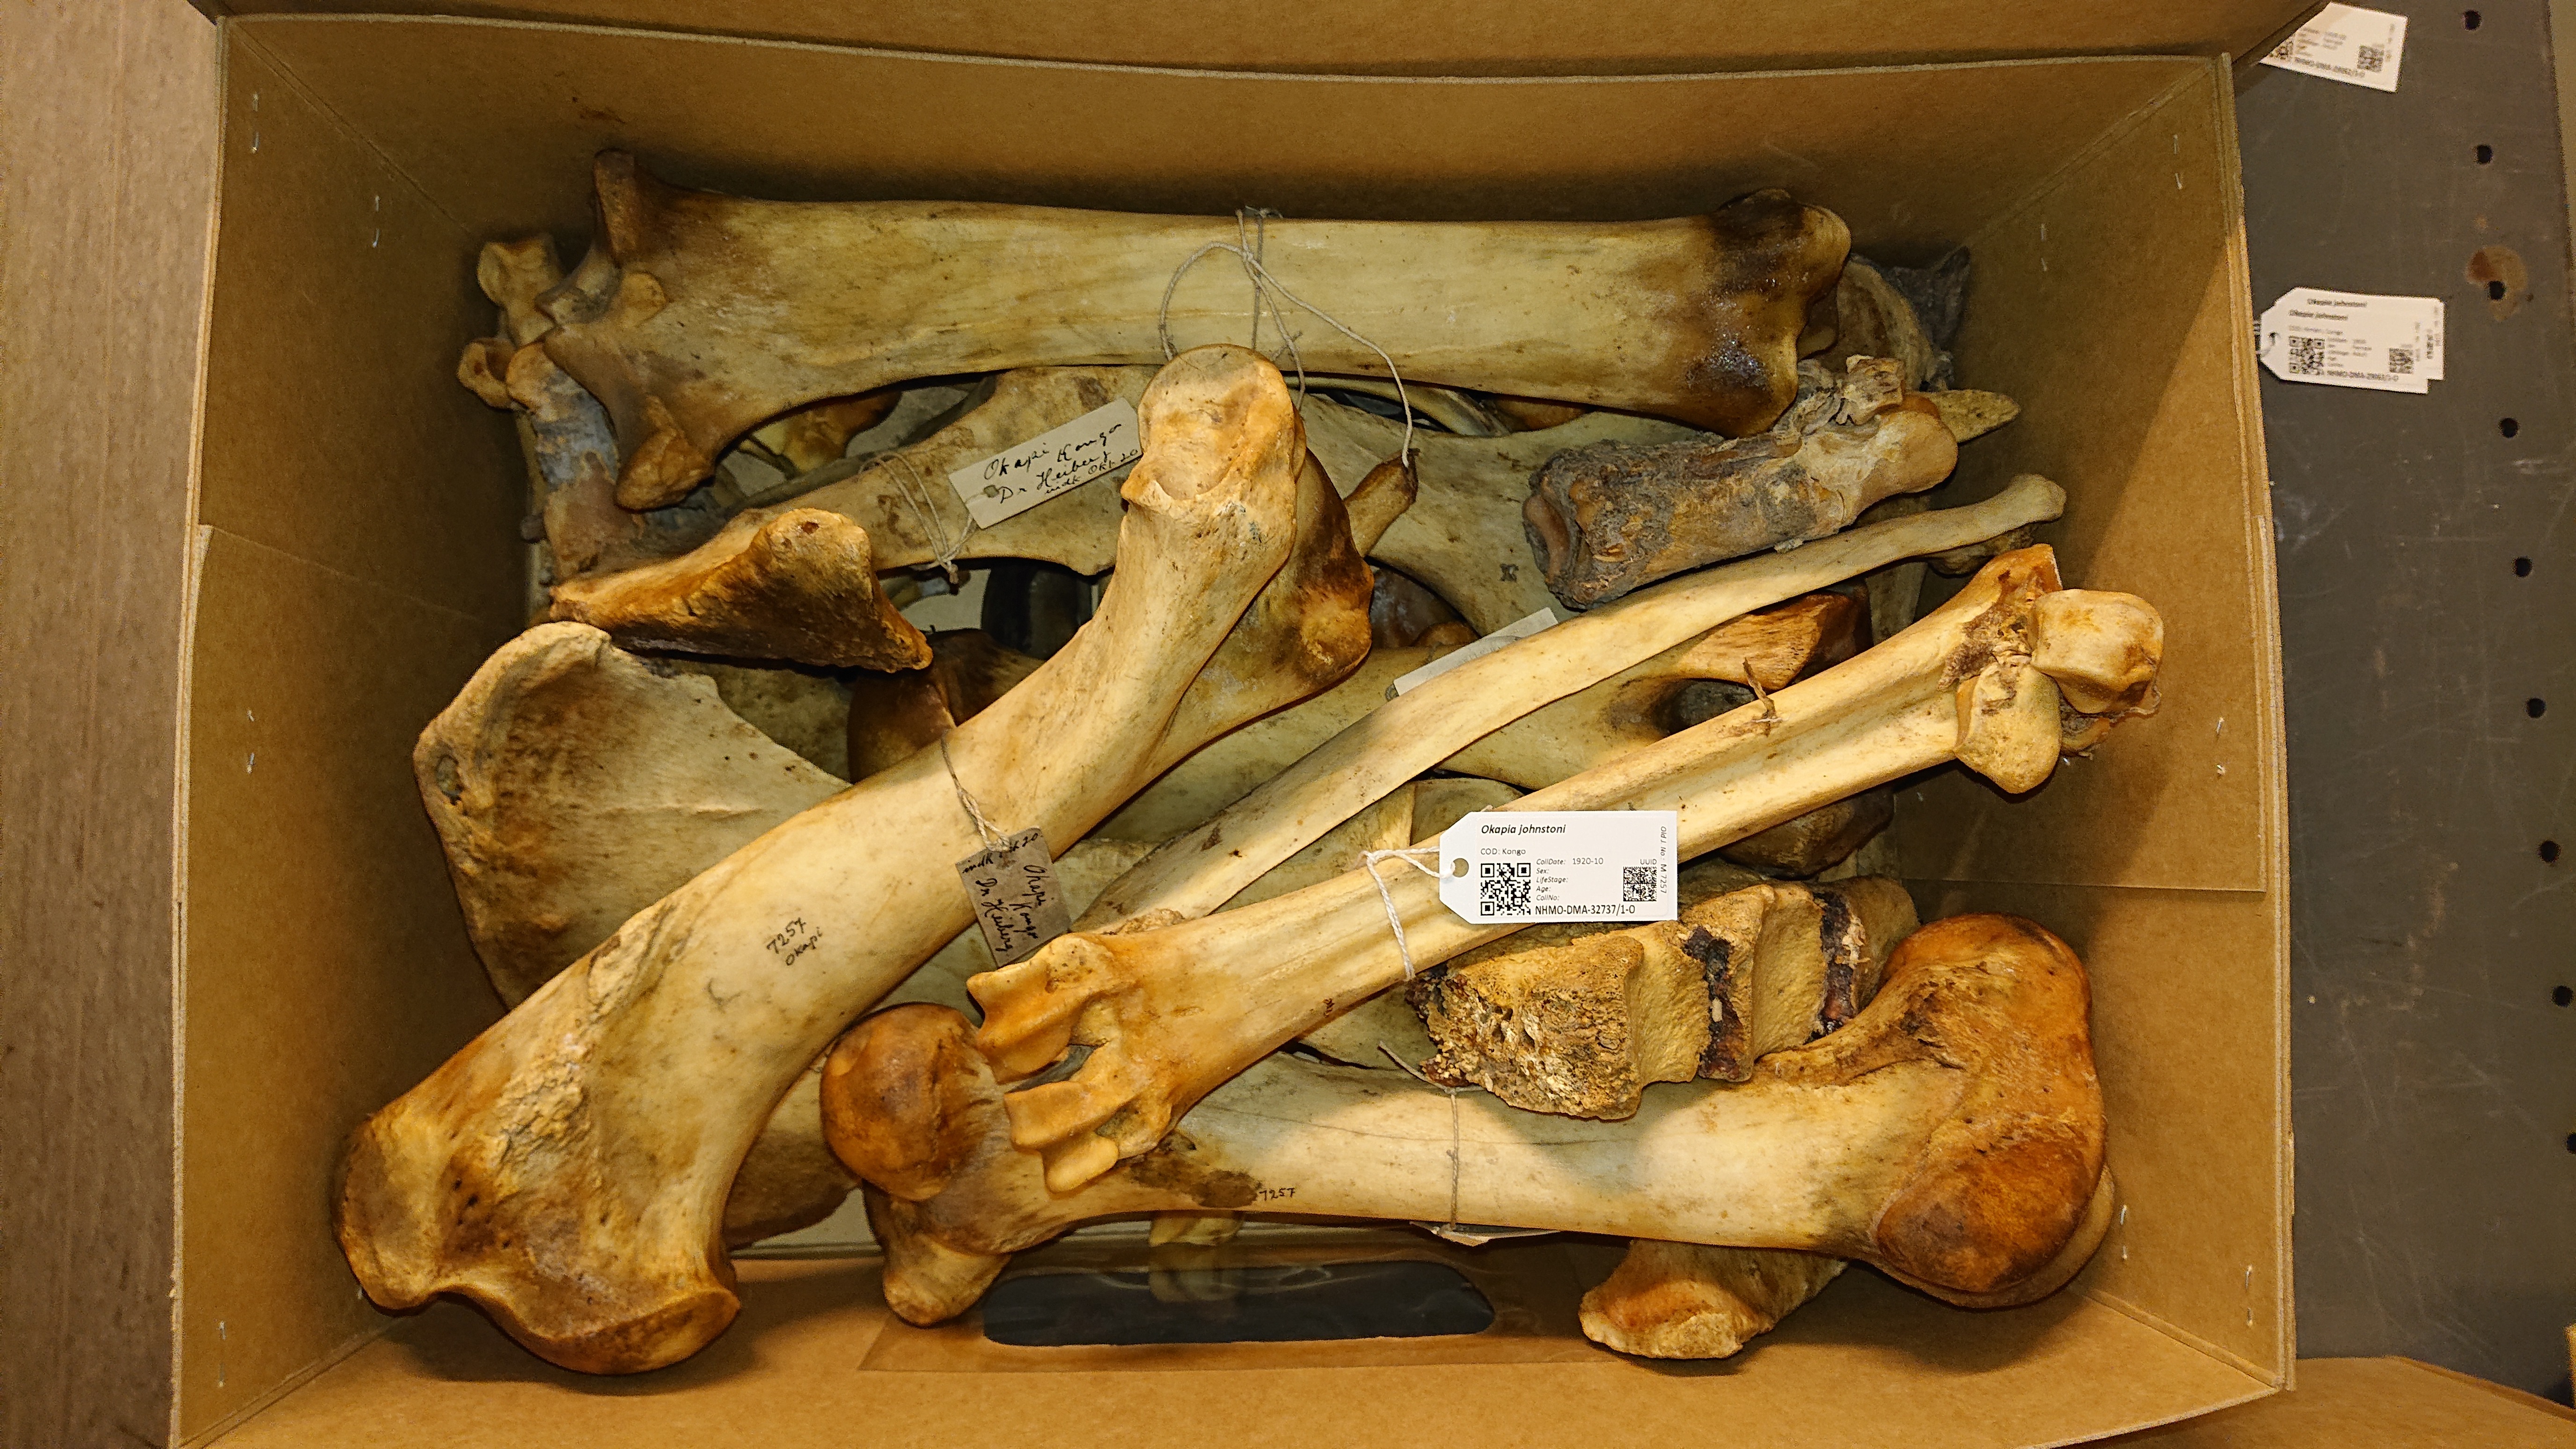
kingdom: Animalia
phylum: Chordata
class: Mammalia
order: Artiodactyla
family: Giraffidae
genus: Okapia
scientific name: Okapia johnstoni
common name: Okapi
